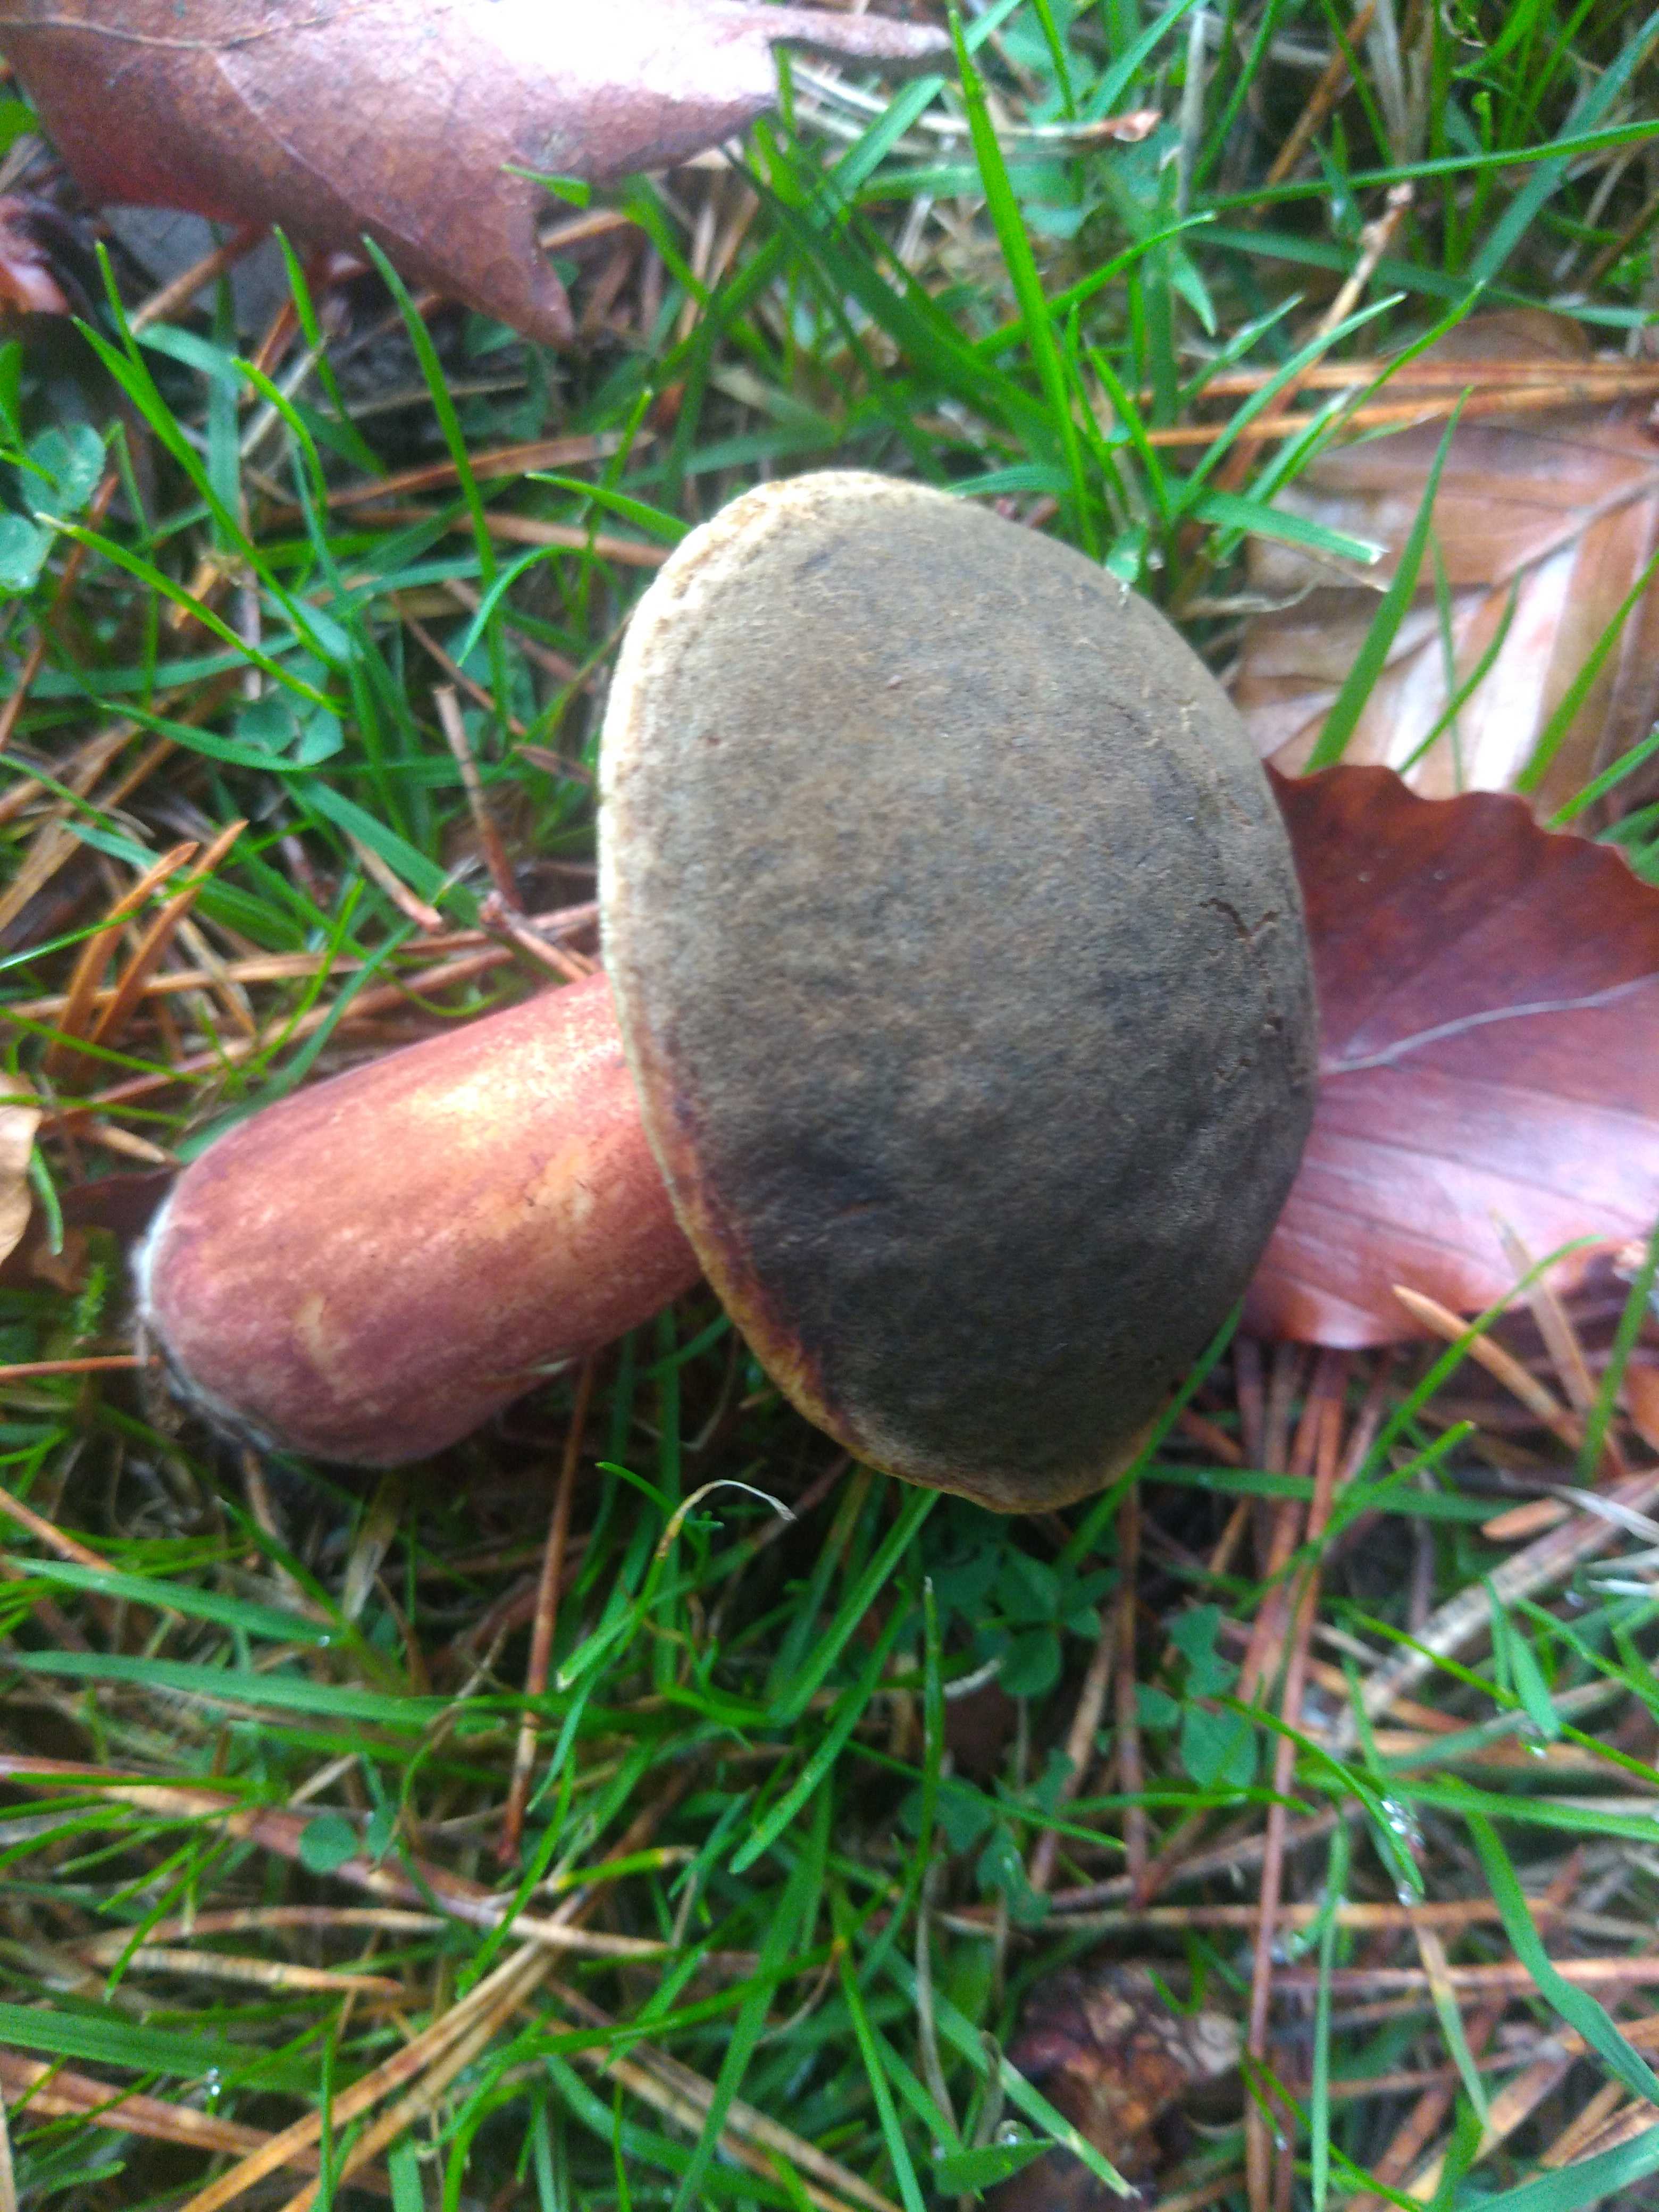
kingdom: Fungi
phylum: Basidiomycota
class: Agaricomycetes
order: Boletales
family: Boletaceae
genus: Xerocomellus
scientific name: Xerocomellus
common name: dværgrørhat
